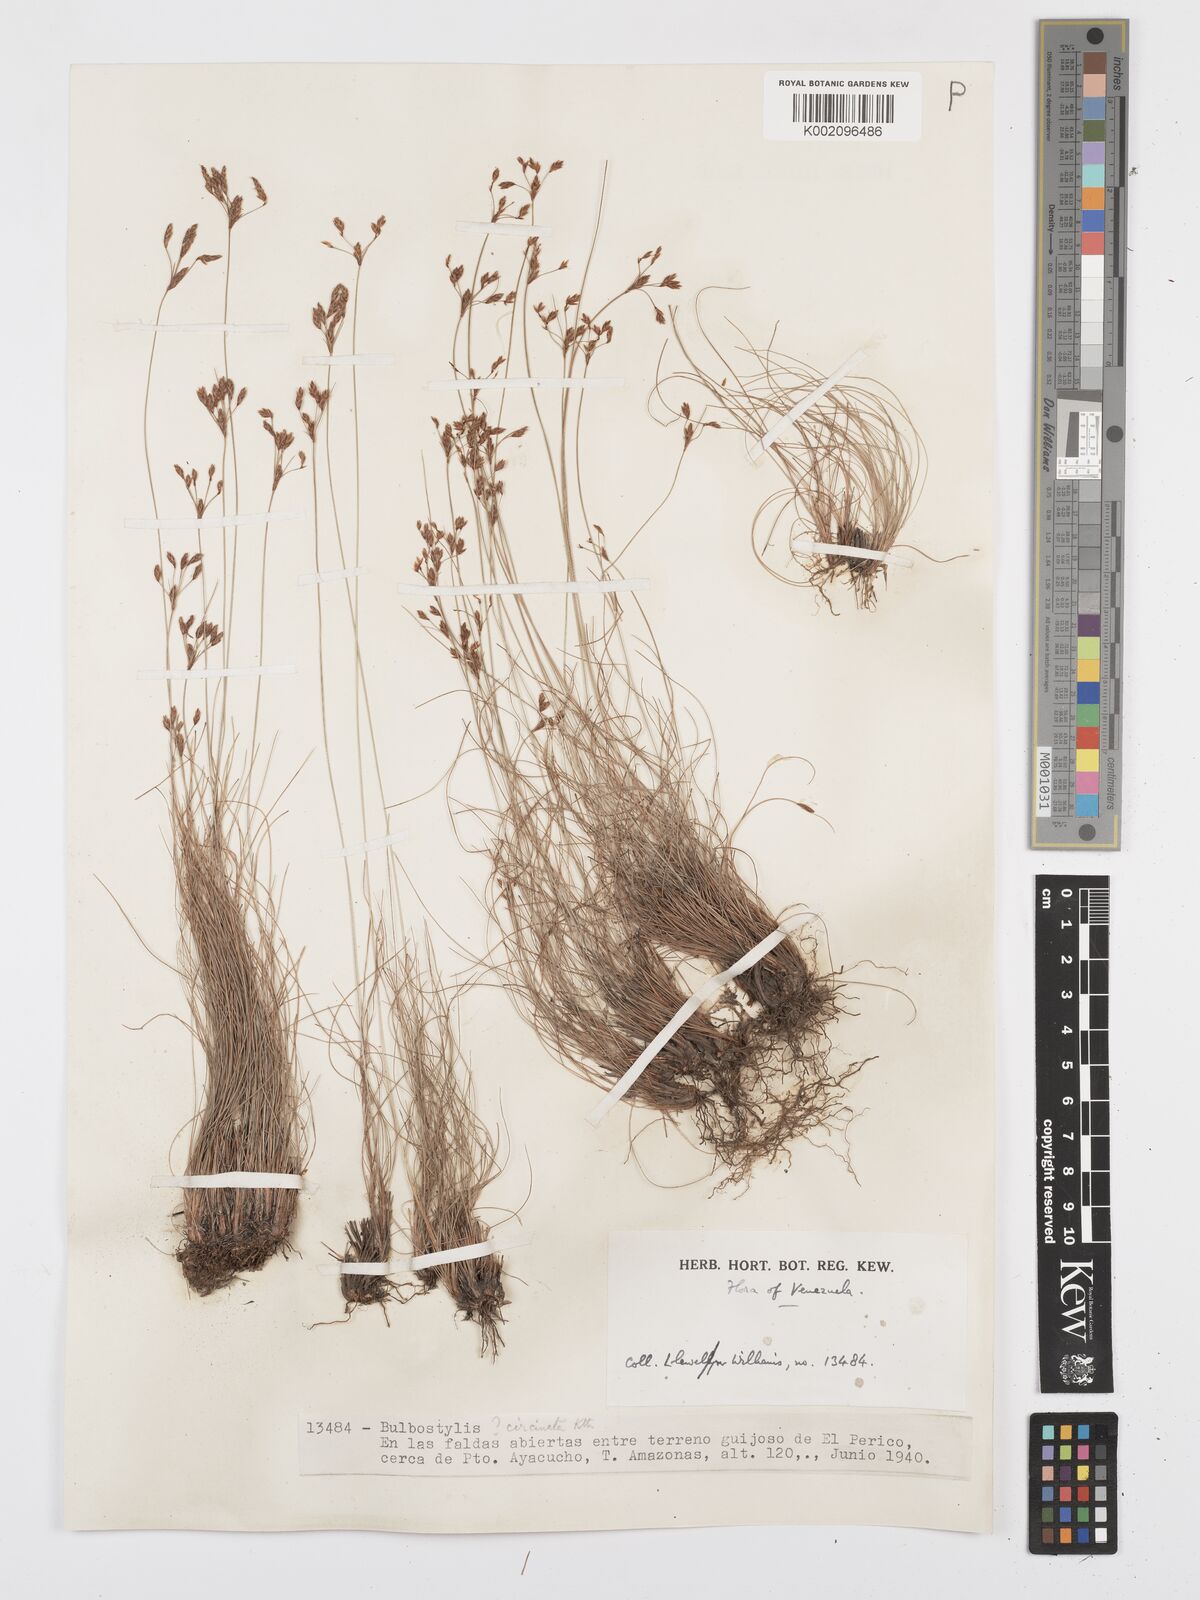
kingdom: Plantae
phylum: Tracheophyta
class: Liliopsida
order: Poales
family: Cyperaceae
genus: Bulbostylis
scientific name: Bulbostylis circinata
